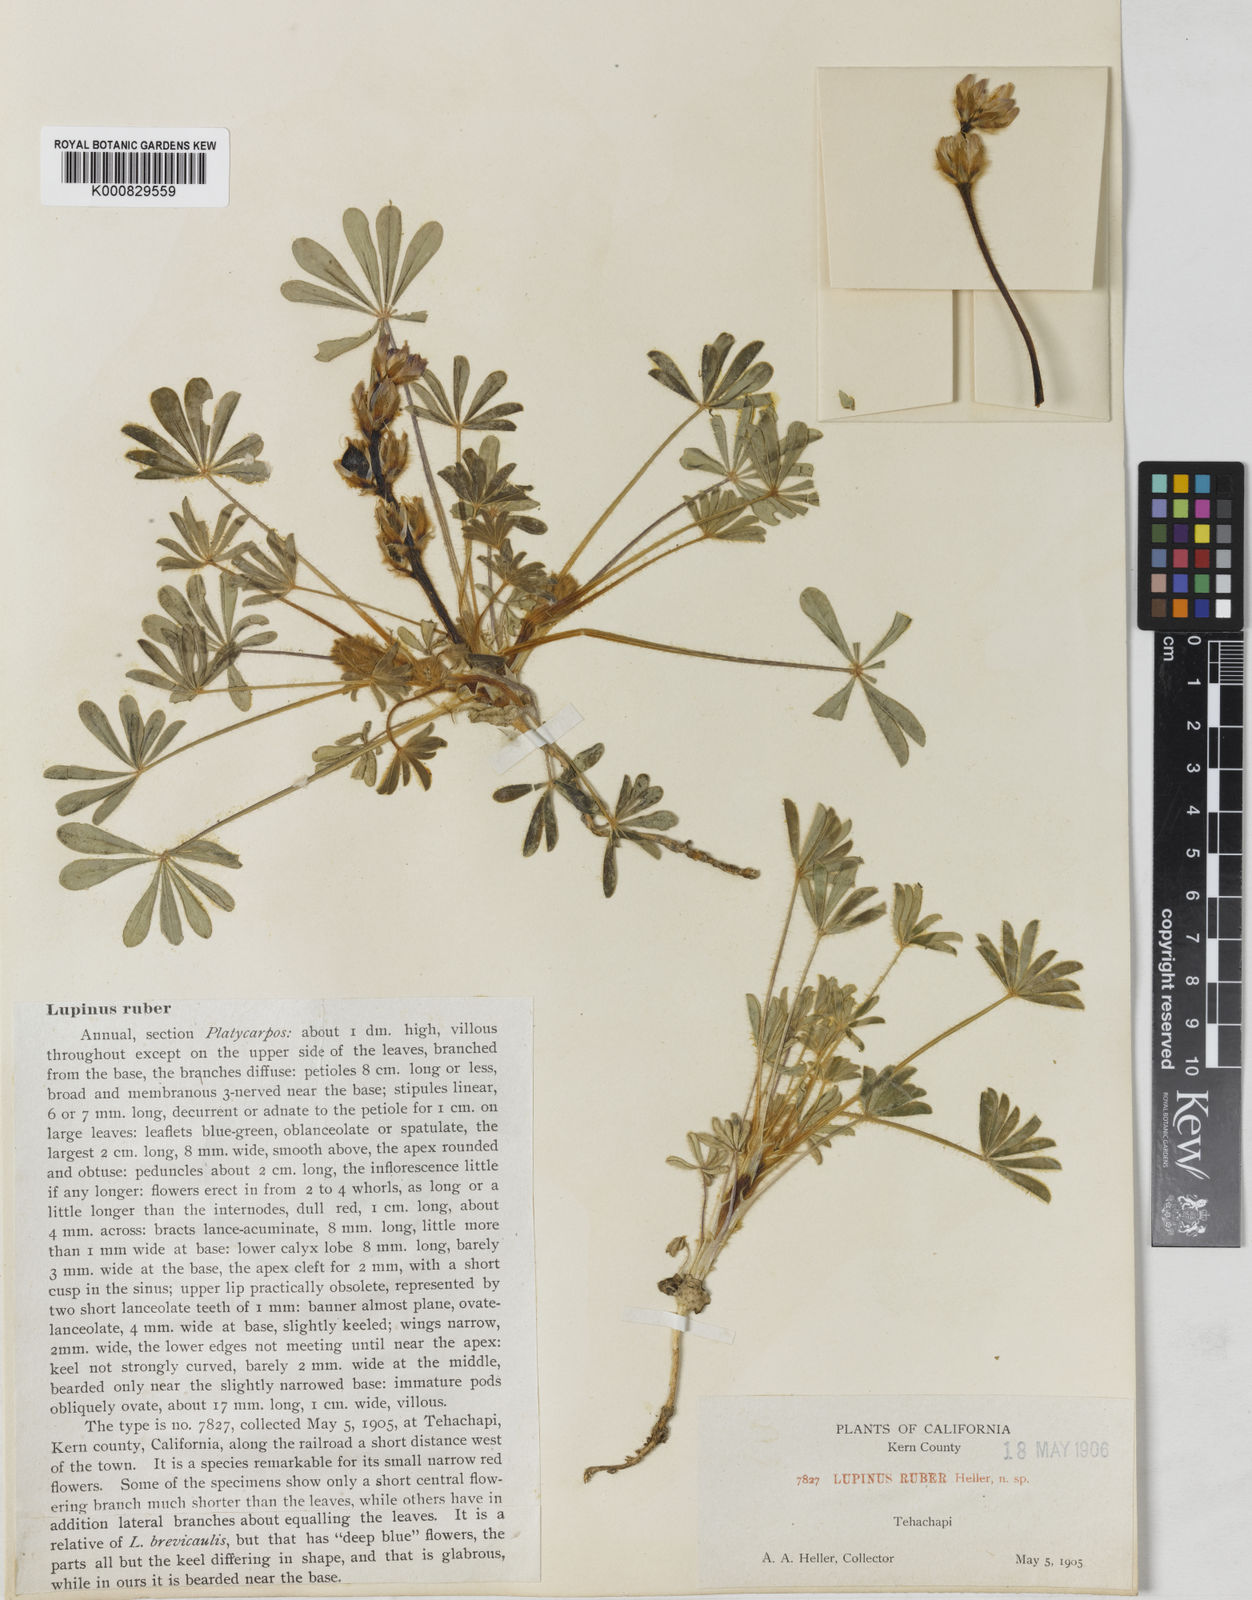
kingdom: Plantae
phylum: Tracheophyta
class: Magnoliopsida
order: Fabales
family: Fabaceae
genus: Lupinus
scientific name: Lupinus ruber
